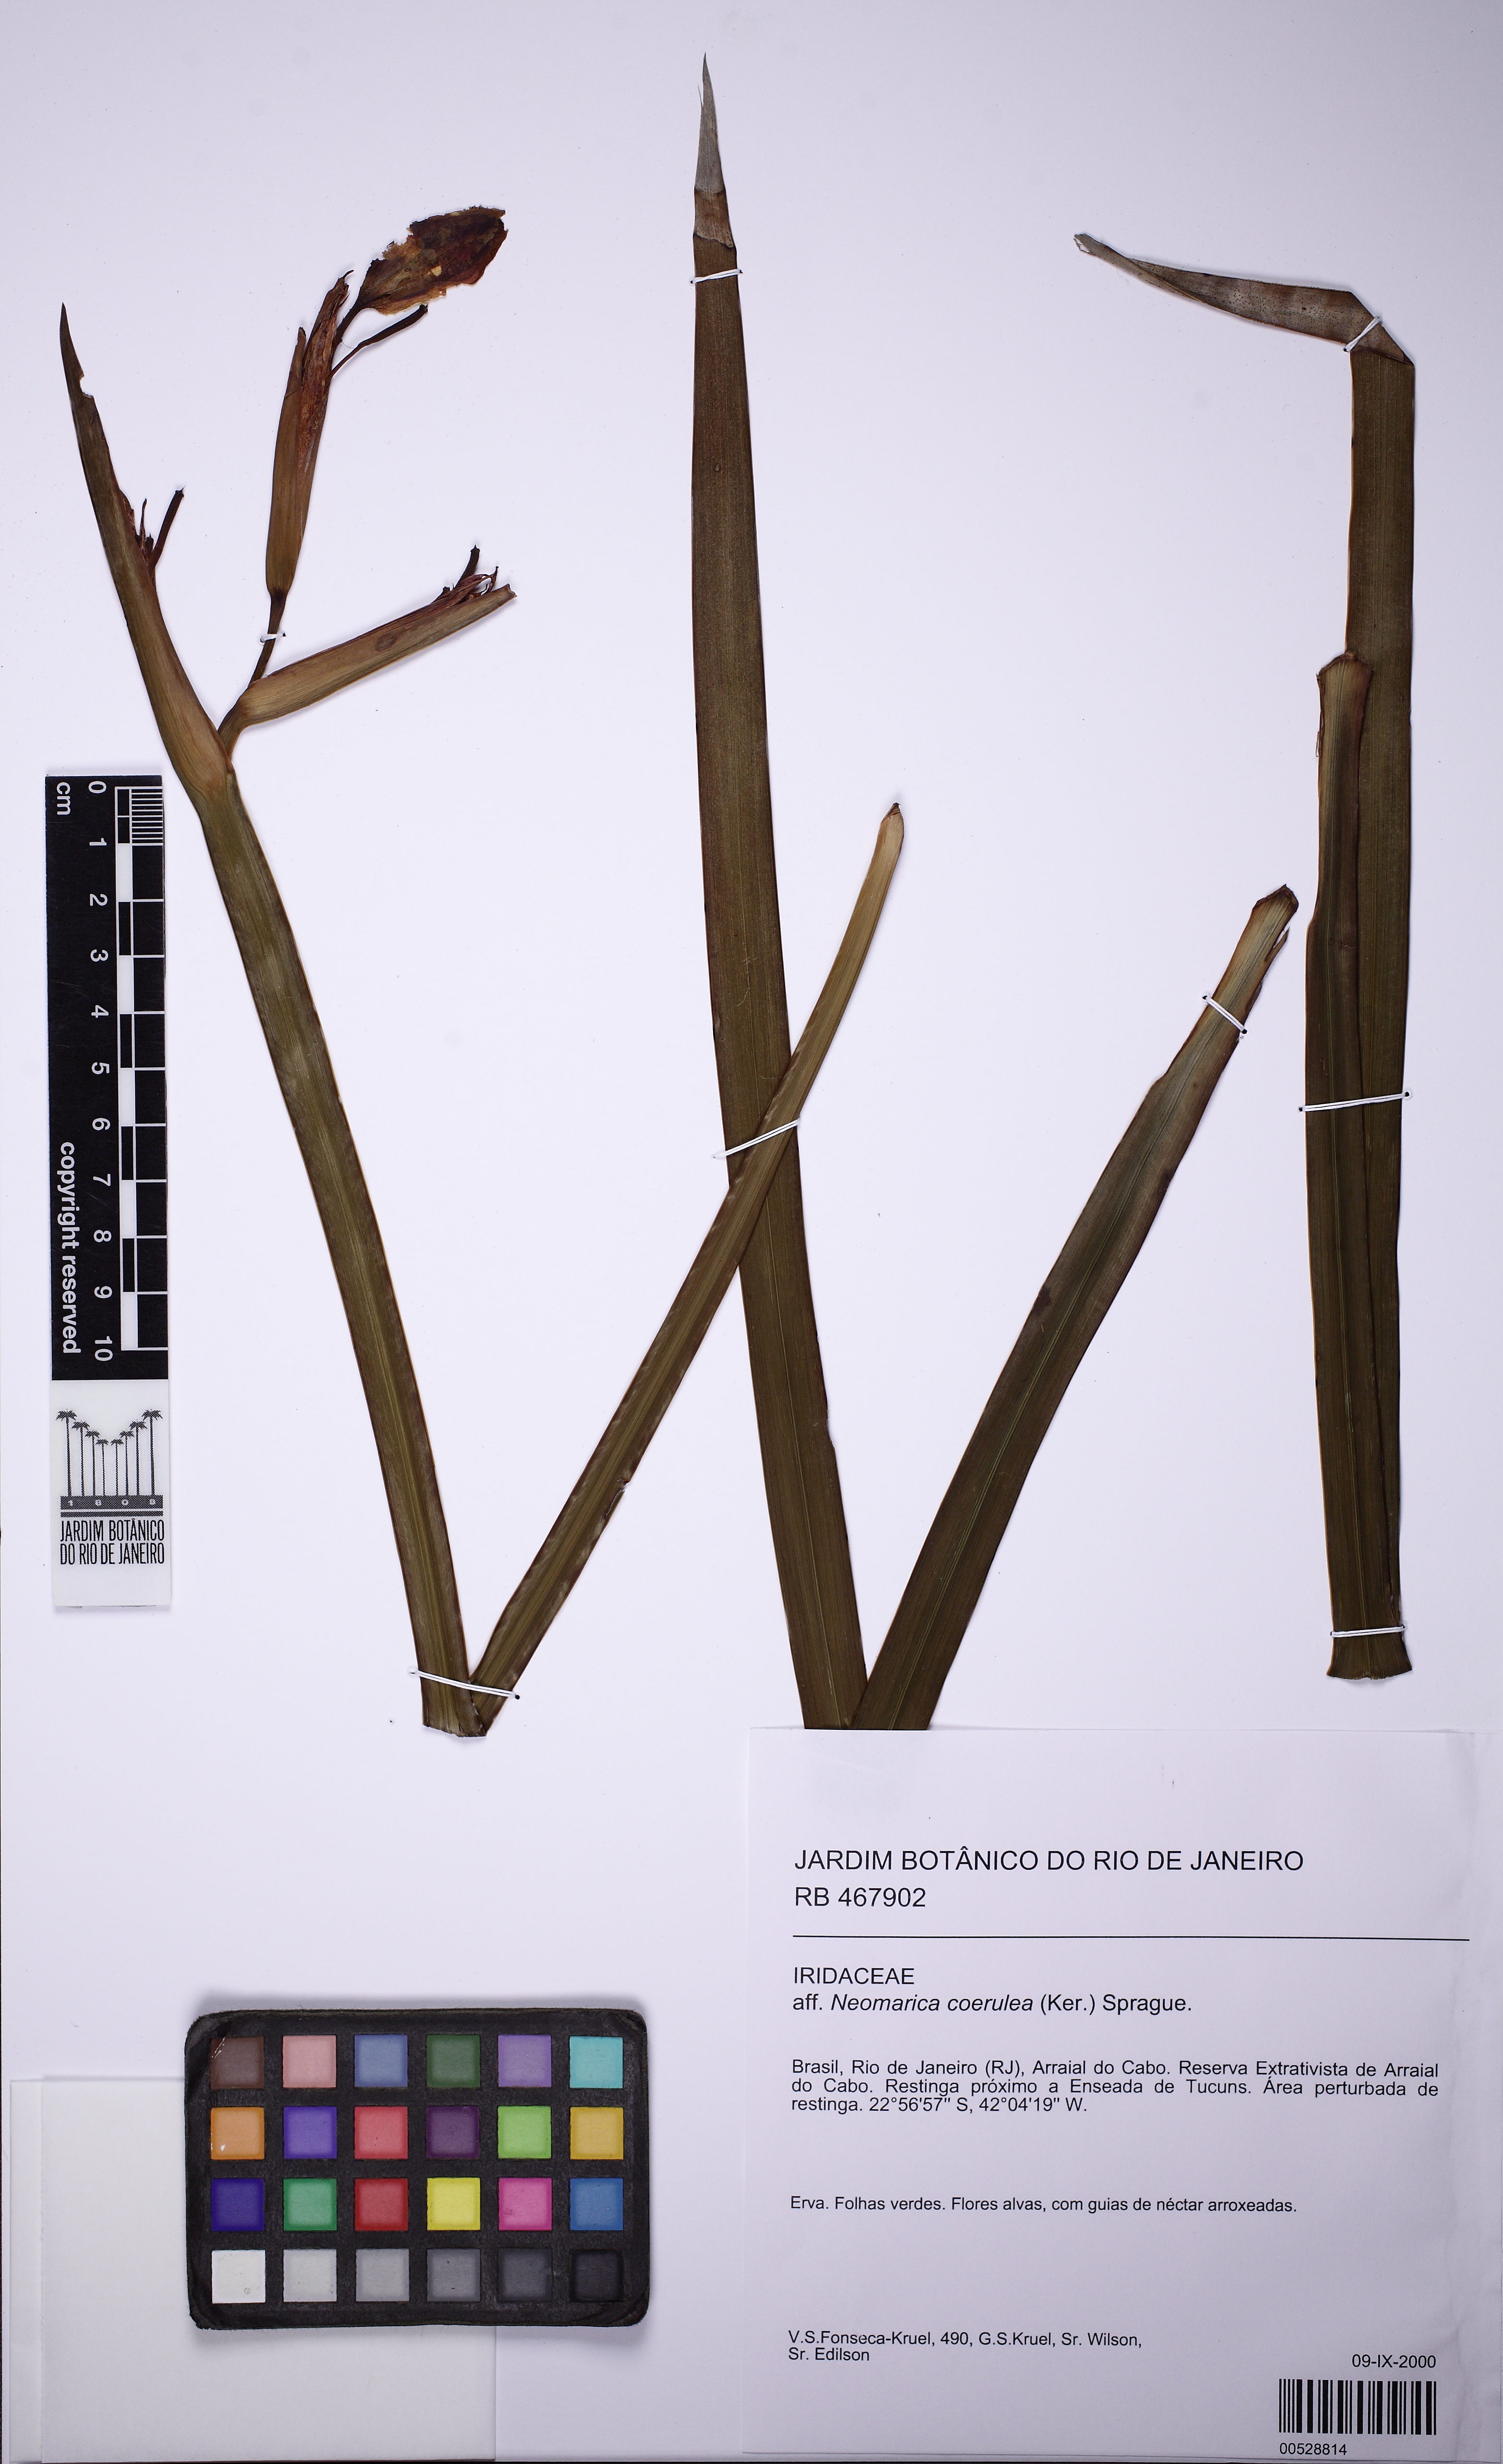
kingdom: Plantae
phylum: Tracheophyta
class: Liliopsida
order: Asparagales
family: Iridaceae
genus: Trimezia
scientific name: Trimezia sabini
